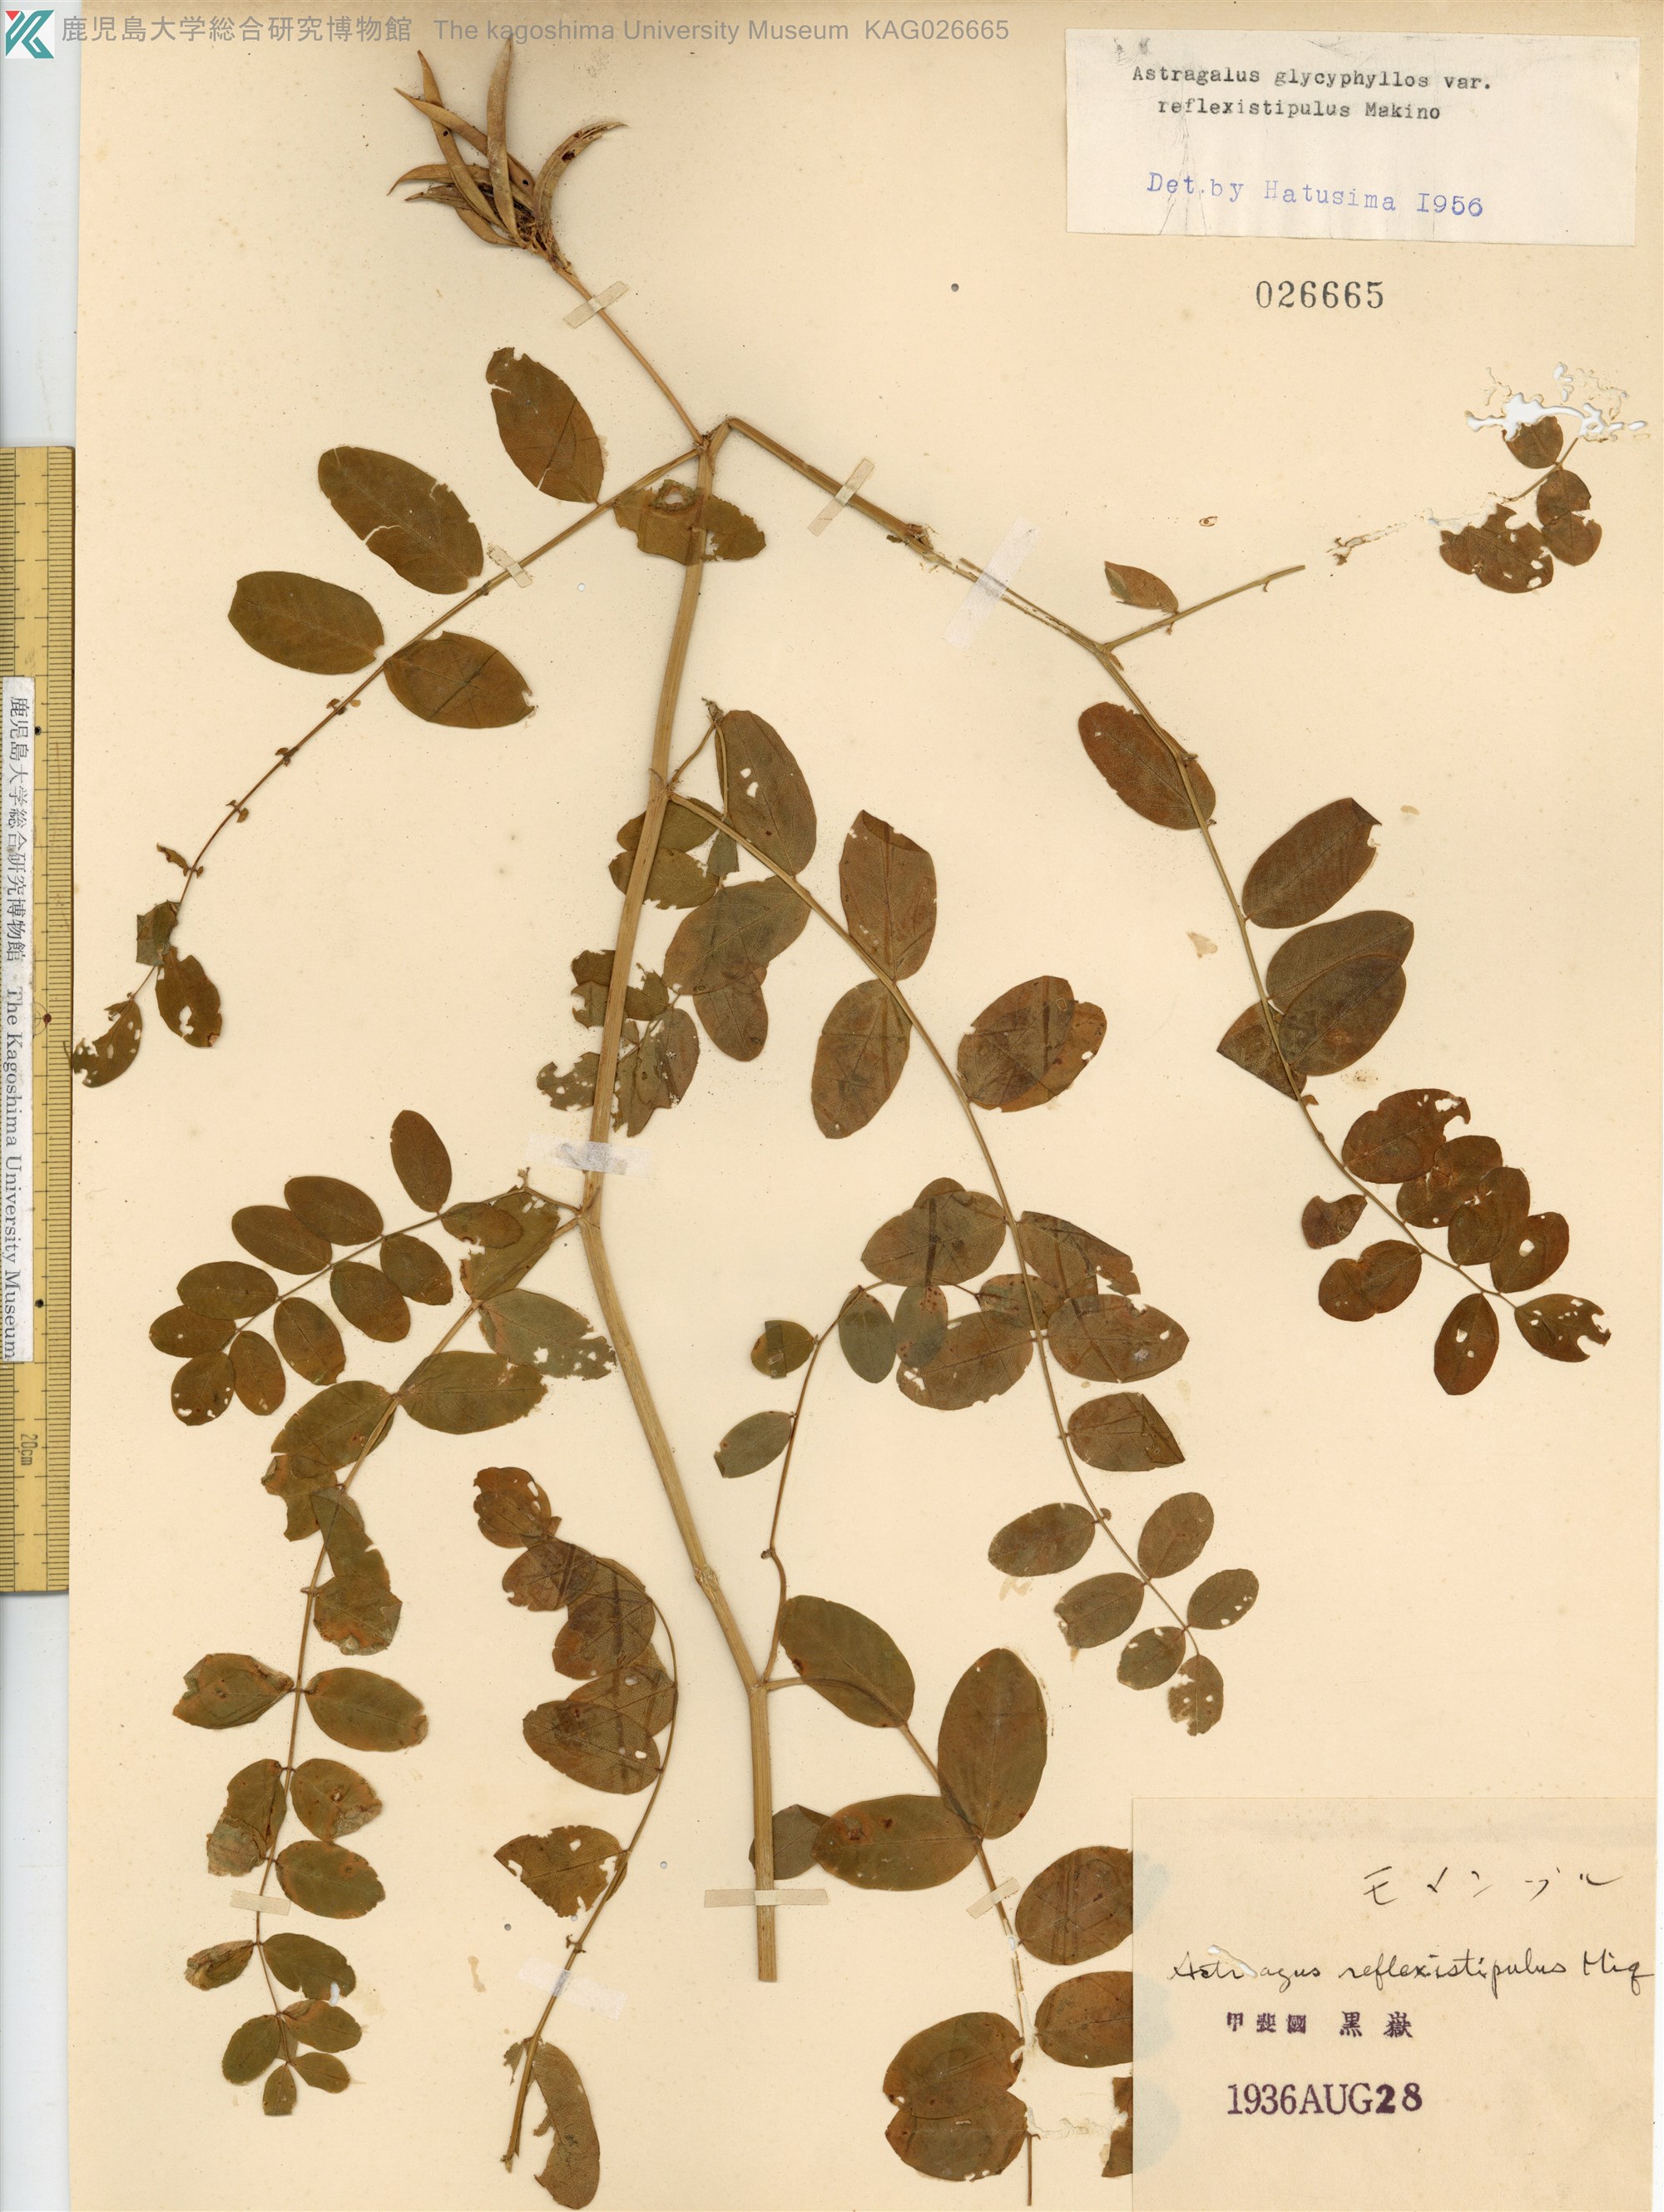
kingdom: Plantae
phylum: Tracheophyta
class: Magnoliopsida
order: Fabales
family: Fabaceae
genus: Astragalus
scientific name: Astragalus reflexistipulus
